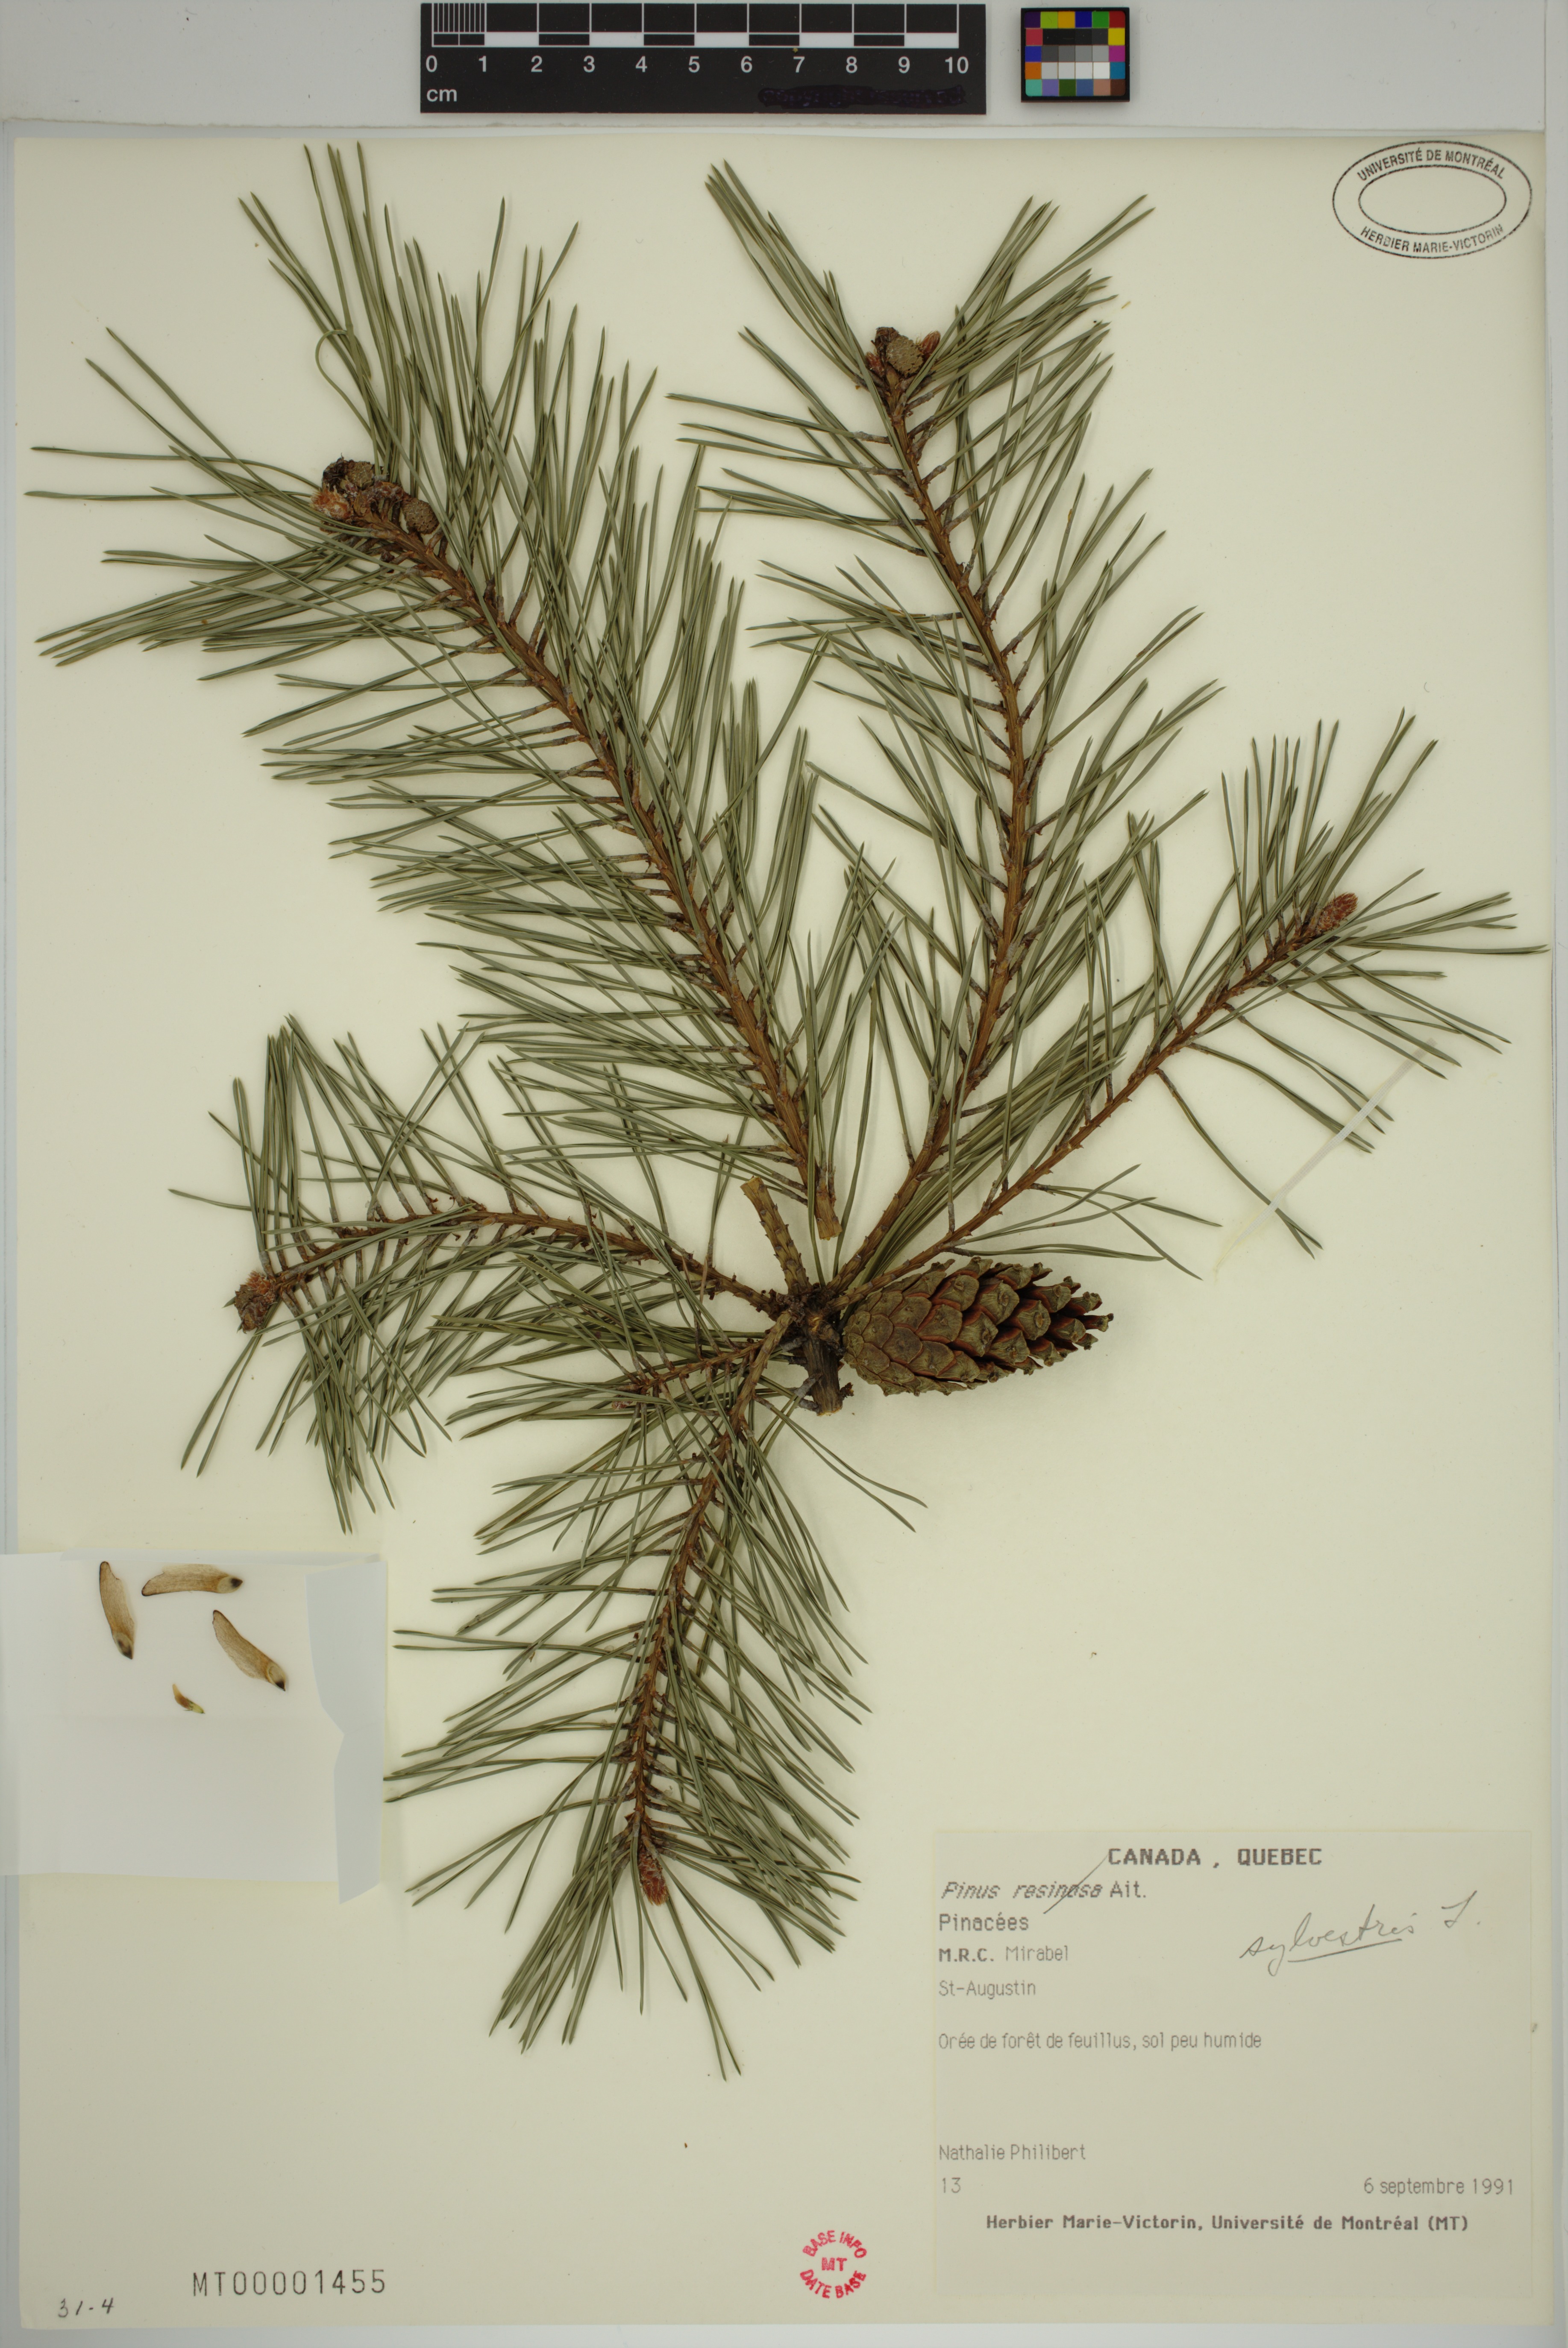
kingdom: Plantae
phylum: Tracheophyta
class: Pinopsida
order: Pinales
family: Pinaceae
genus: Pinus
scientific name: Pinus sylvestris
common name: Scots pine
